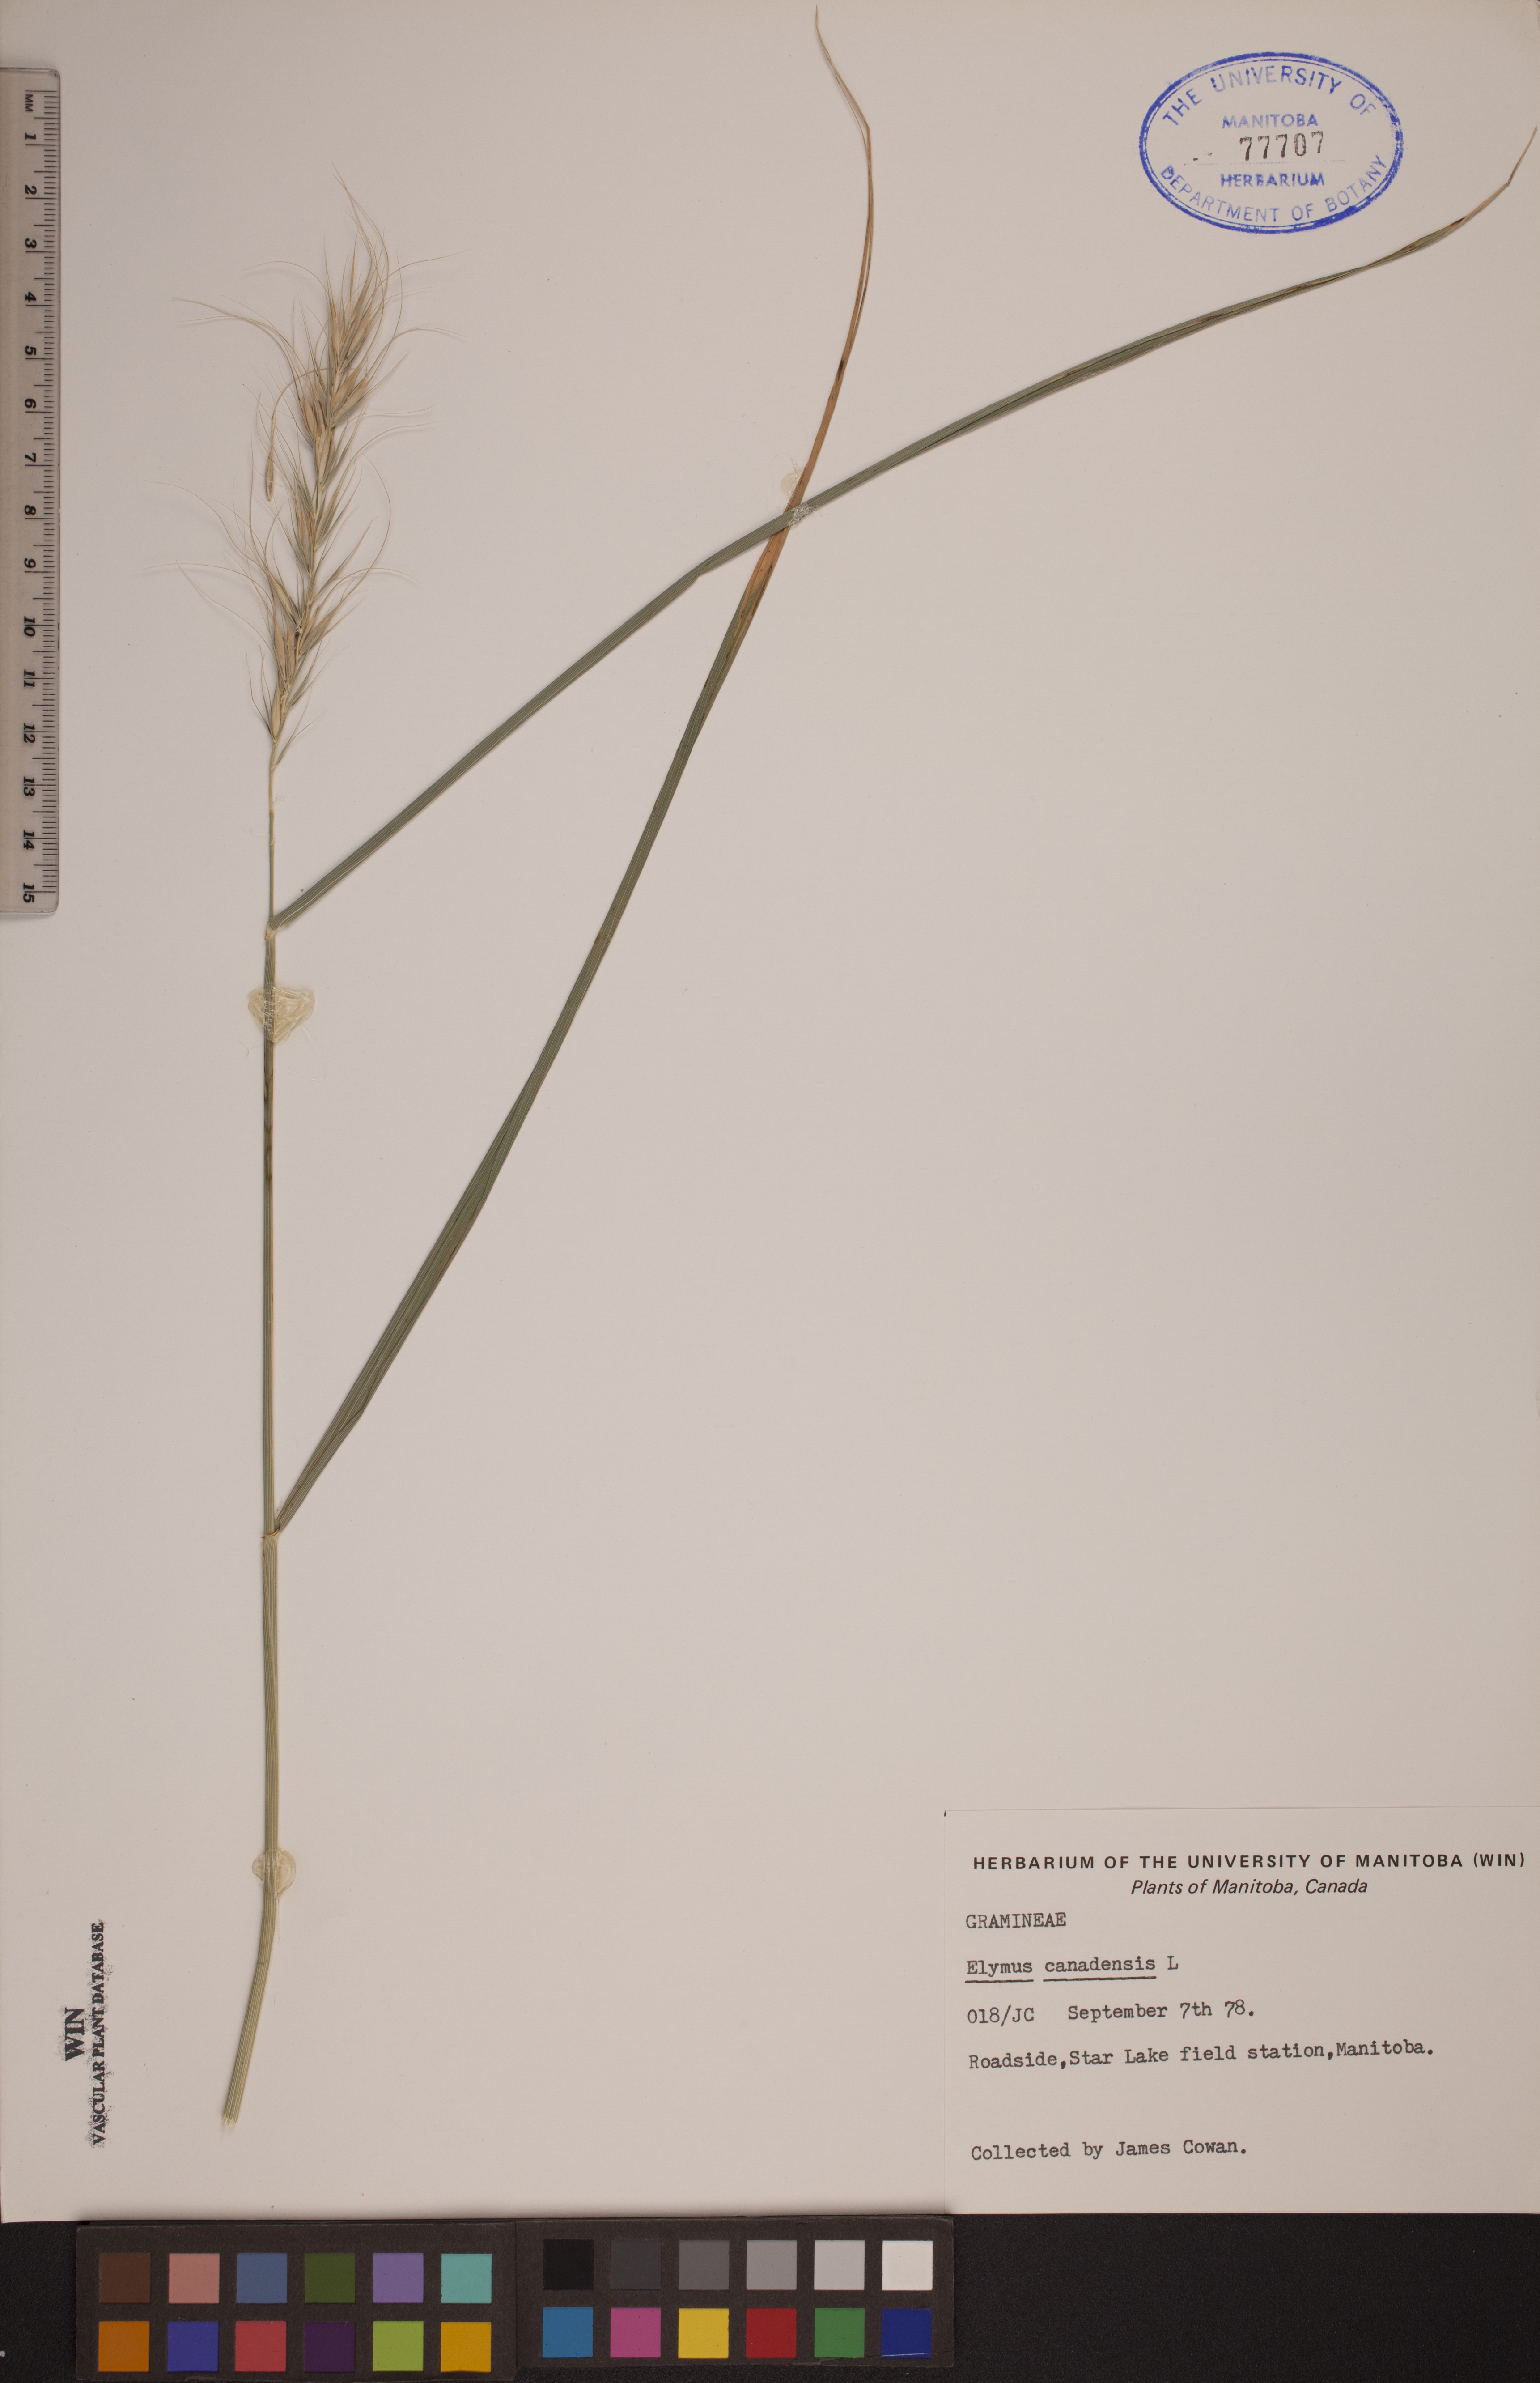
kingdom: Plantae
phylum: Tracheophyta
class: Liliopsida
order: Poales
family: Poaceae
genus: Elymus
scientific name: Elymus canadensis
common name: Canada wild rye
